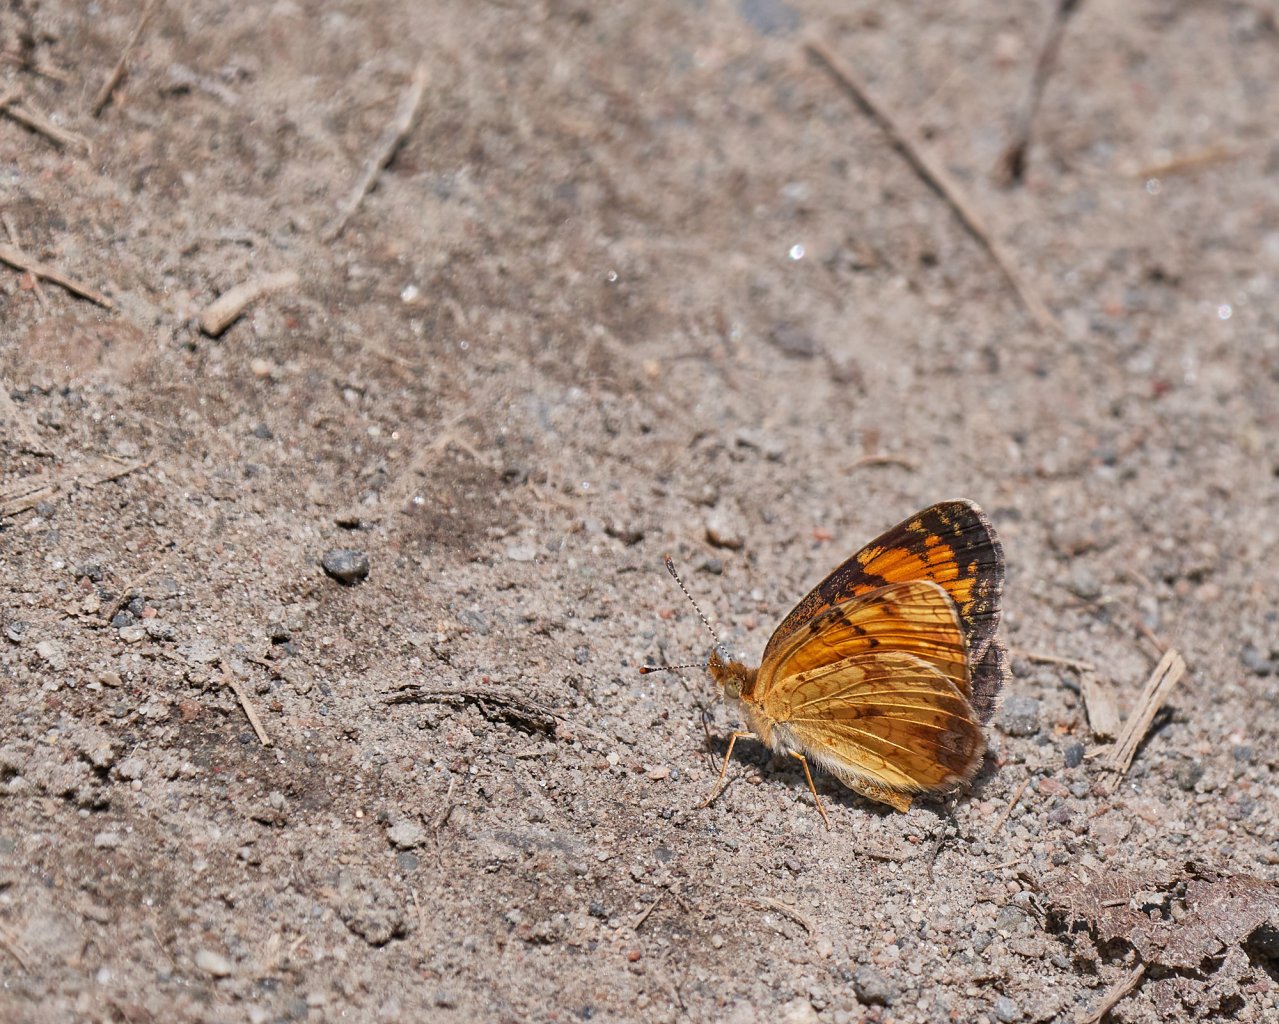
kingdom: Animalia
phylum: Arthropoda
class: Insecta
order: Lepidoptera
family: Nymphalidae
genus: Phyciodes
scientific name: Phyciodes tharos
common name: Northern Crescent
